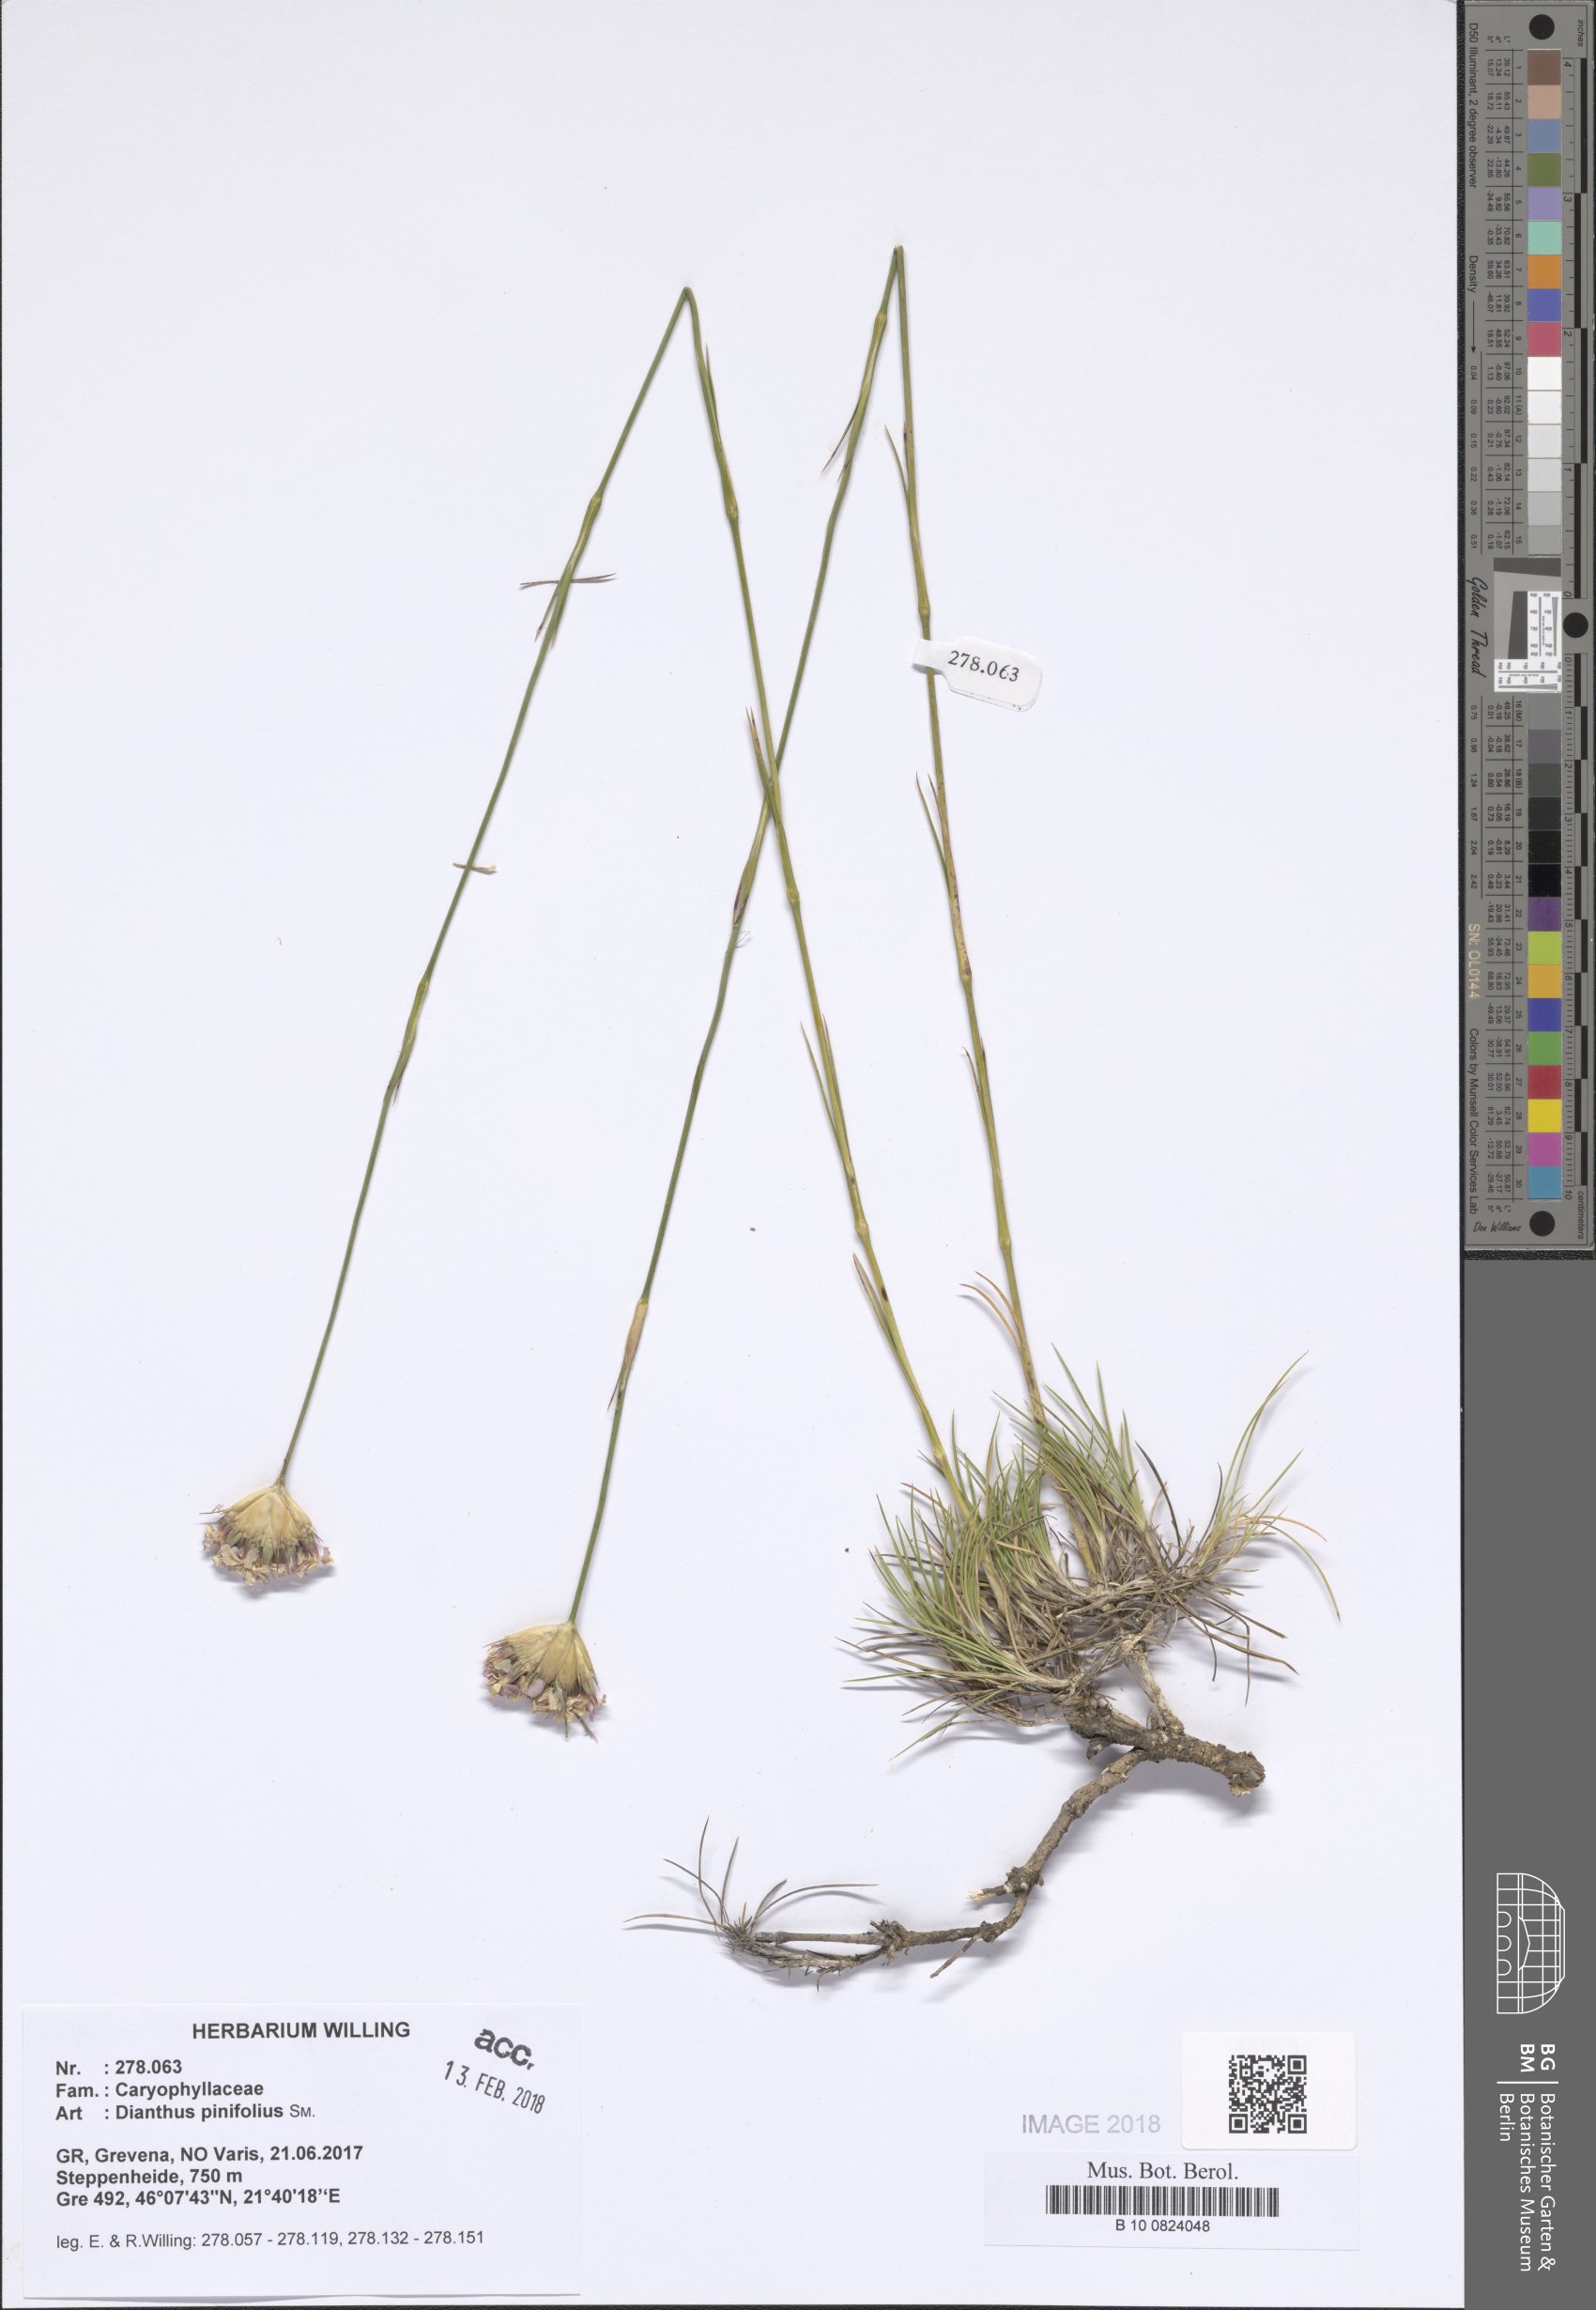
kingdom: Plantae
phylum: Tracheophyta
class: Magnoliopsida
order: Caryophyllales
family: Caryophyllaceae
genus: Dianthus
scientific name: Dianthus pinifolius
